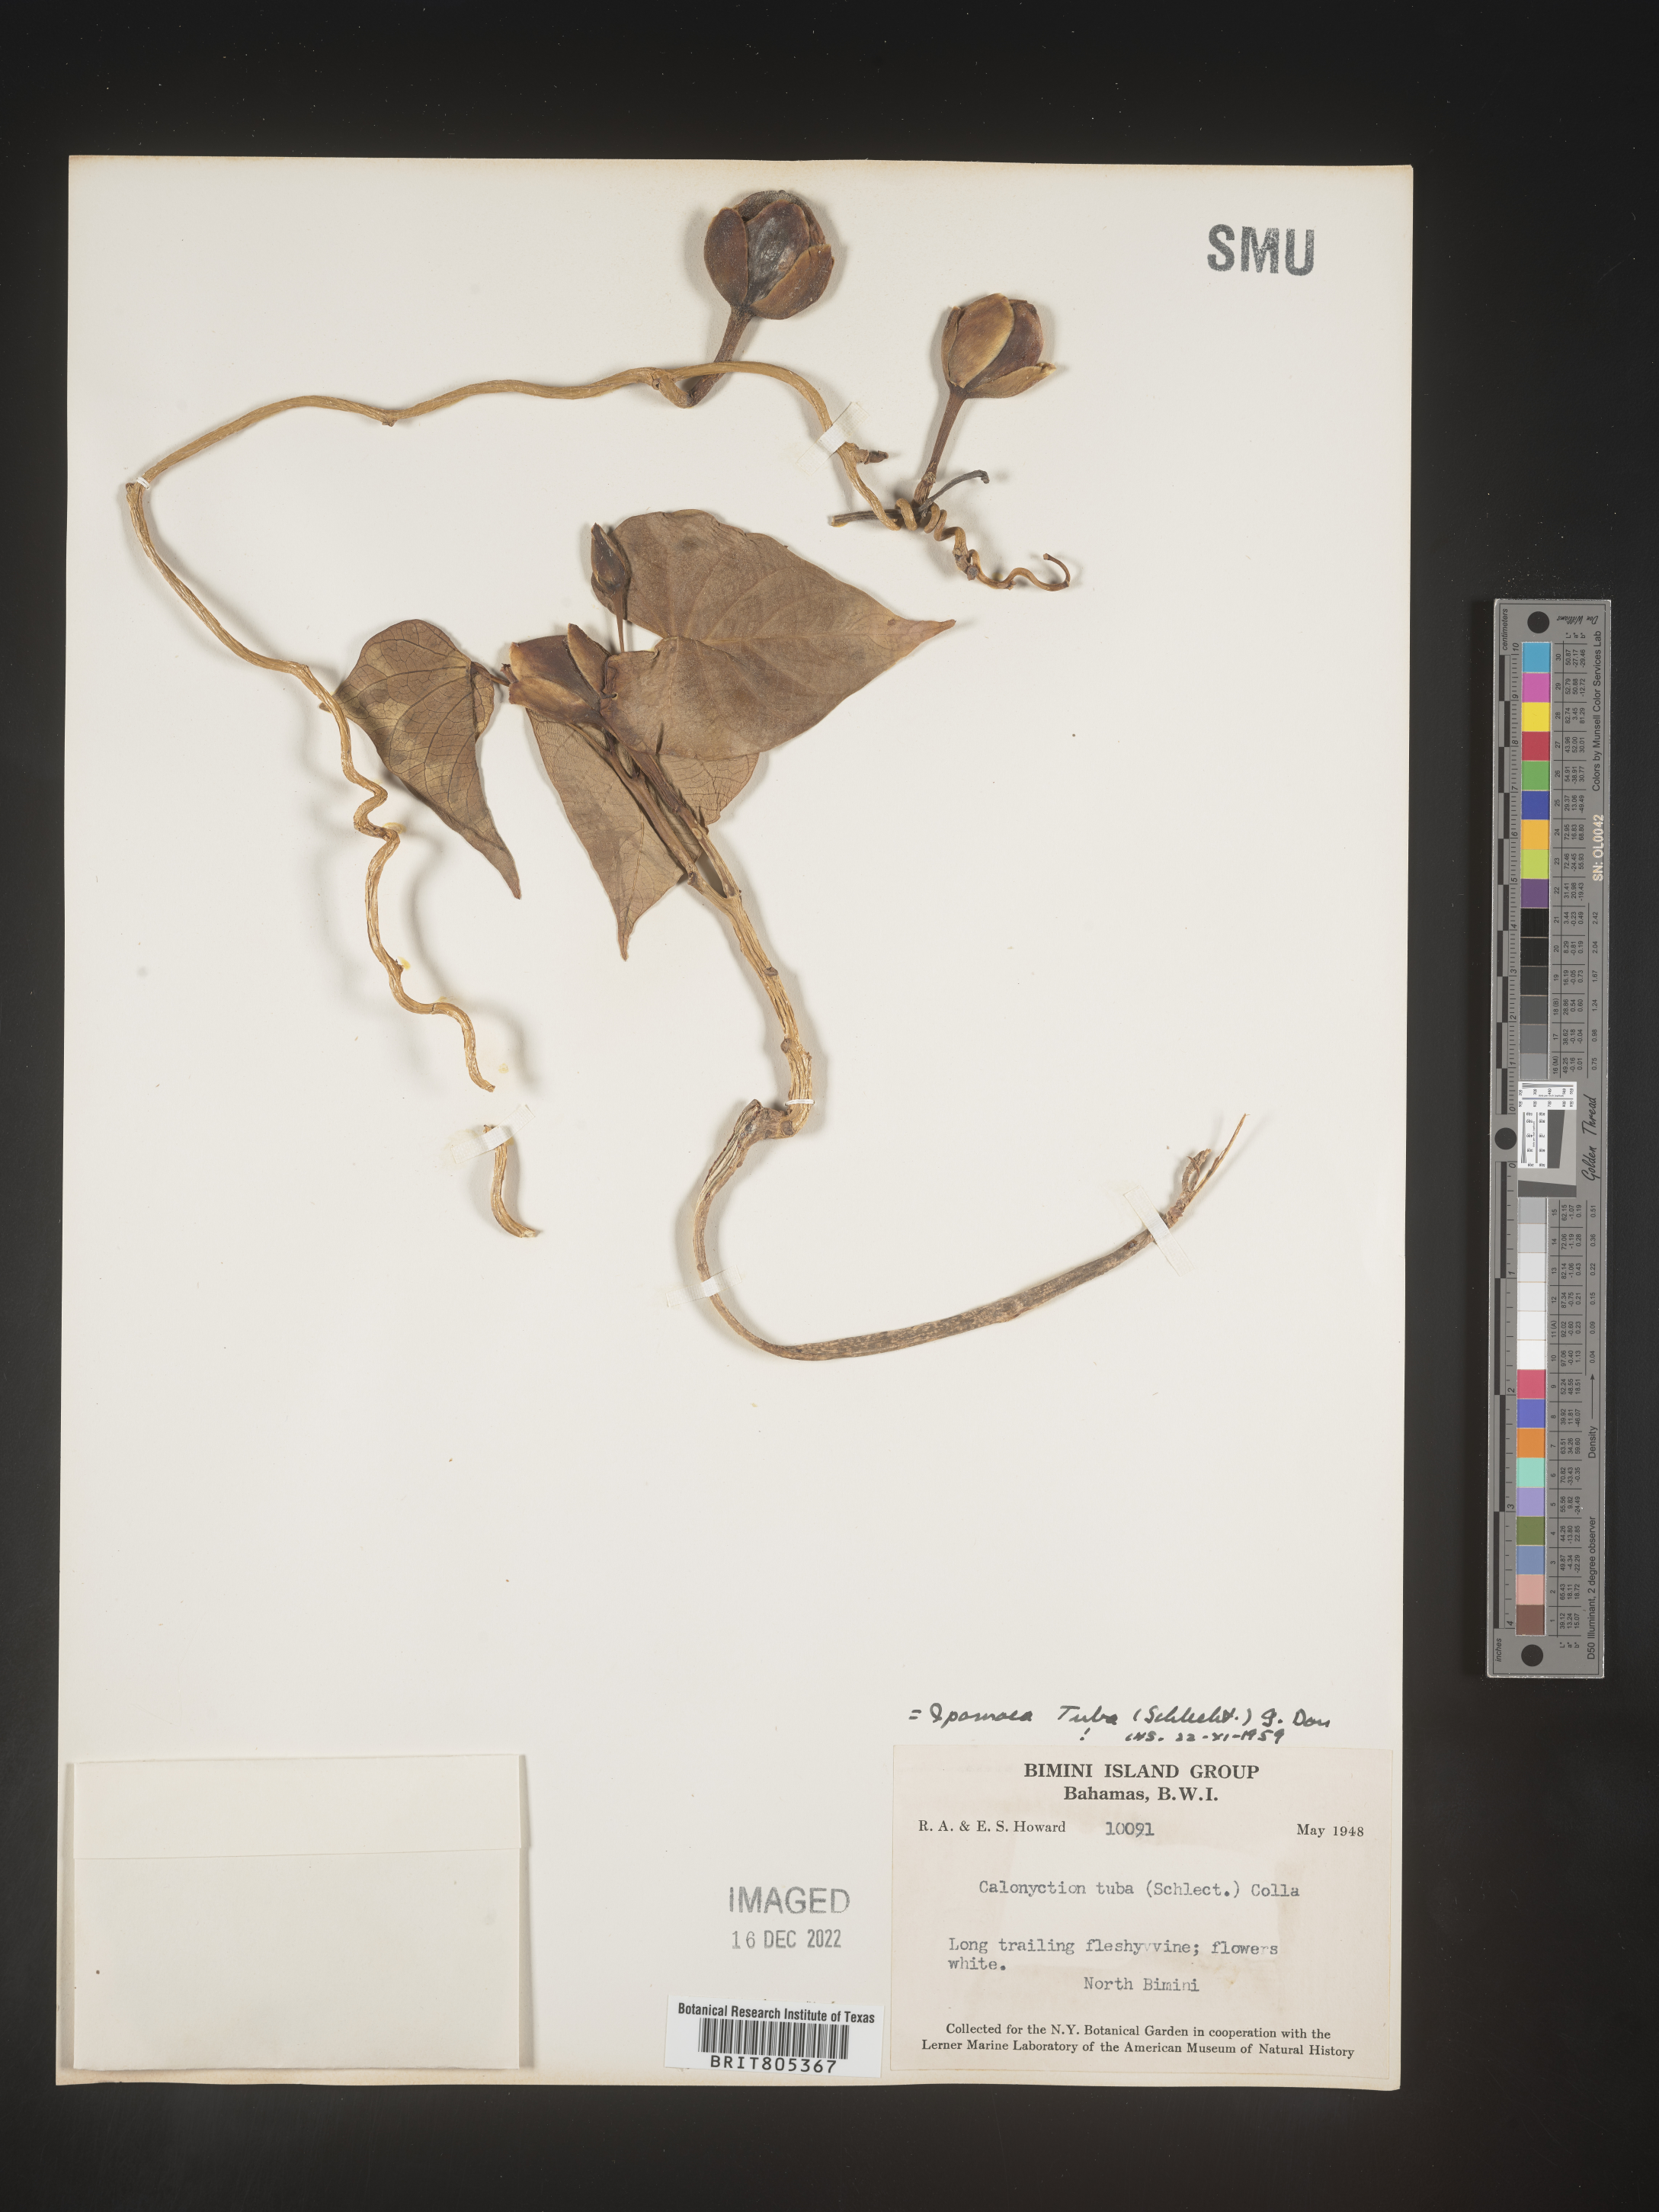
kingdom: Plantae
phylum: Tracheophyta
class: Magnoliopsida
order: Solanales
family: Convolvulaceae
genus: Ipomoea
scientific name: Ipomoea
